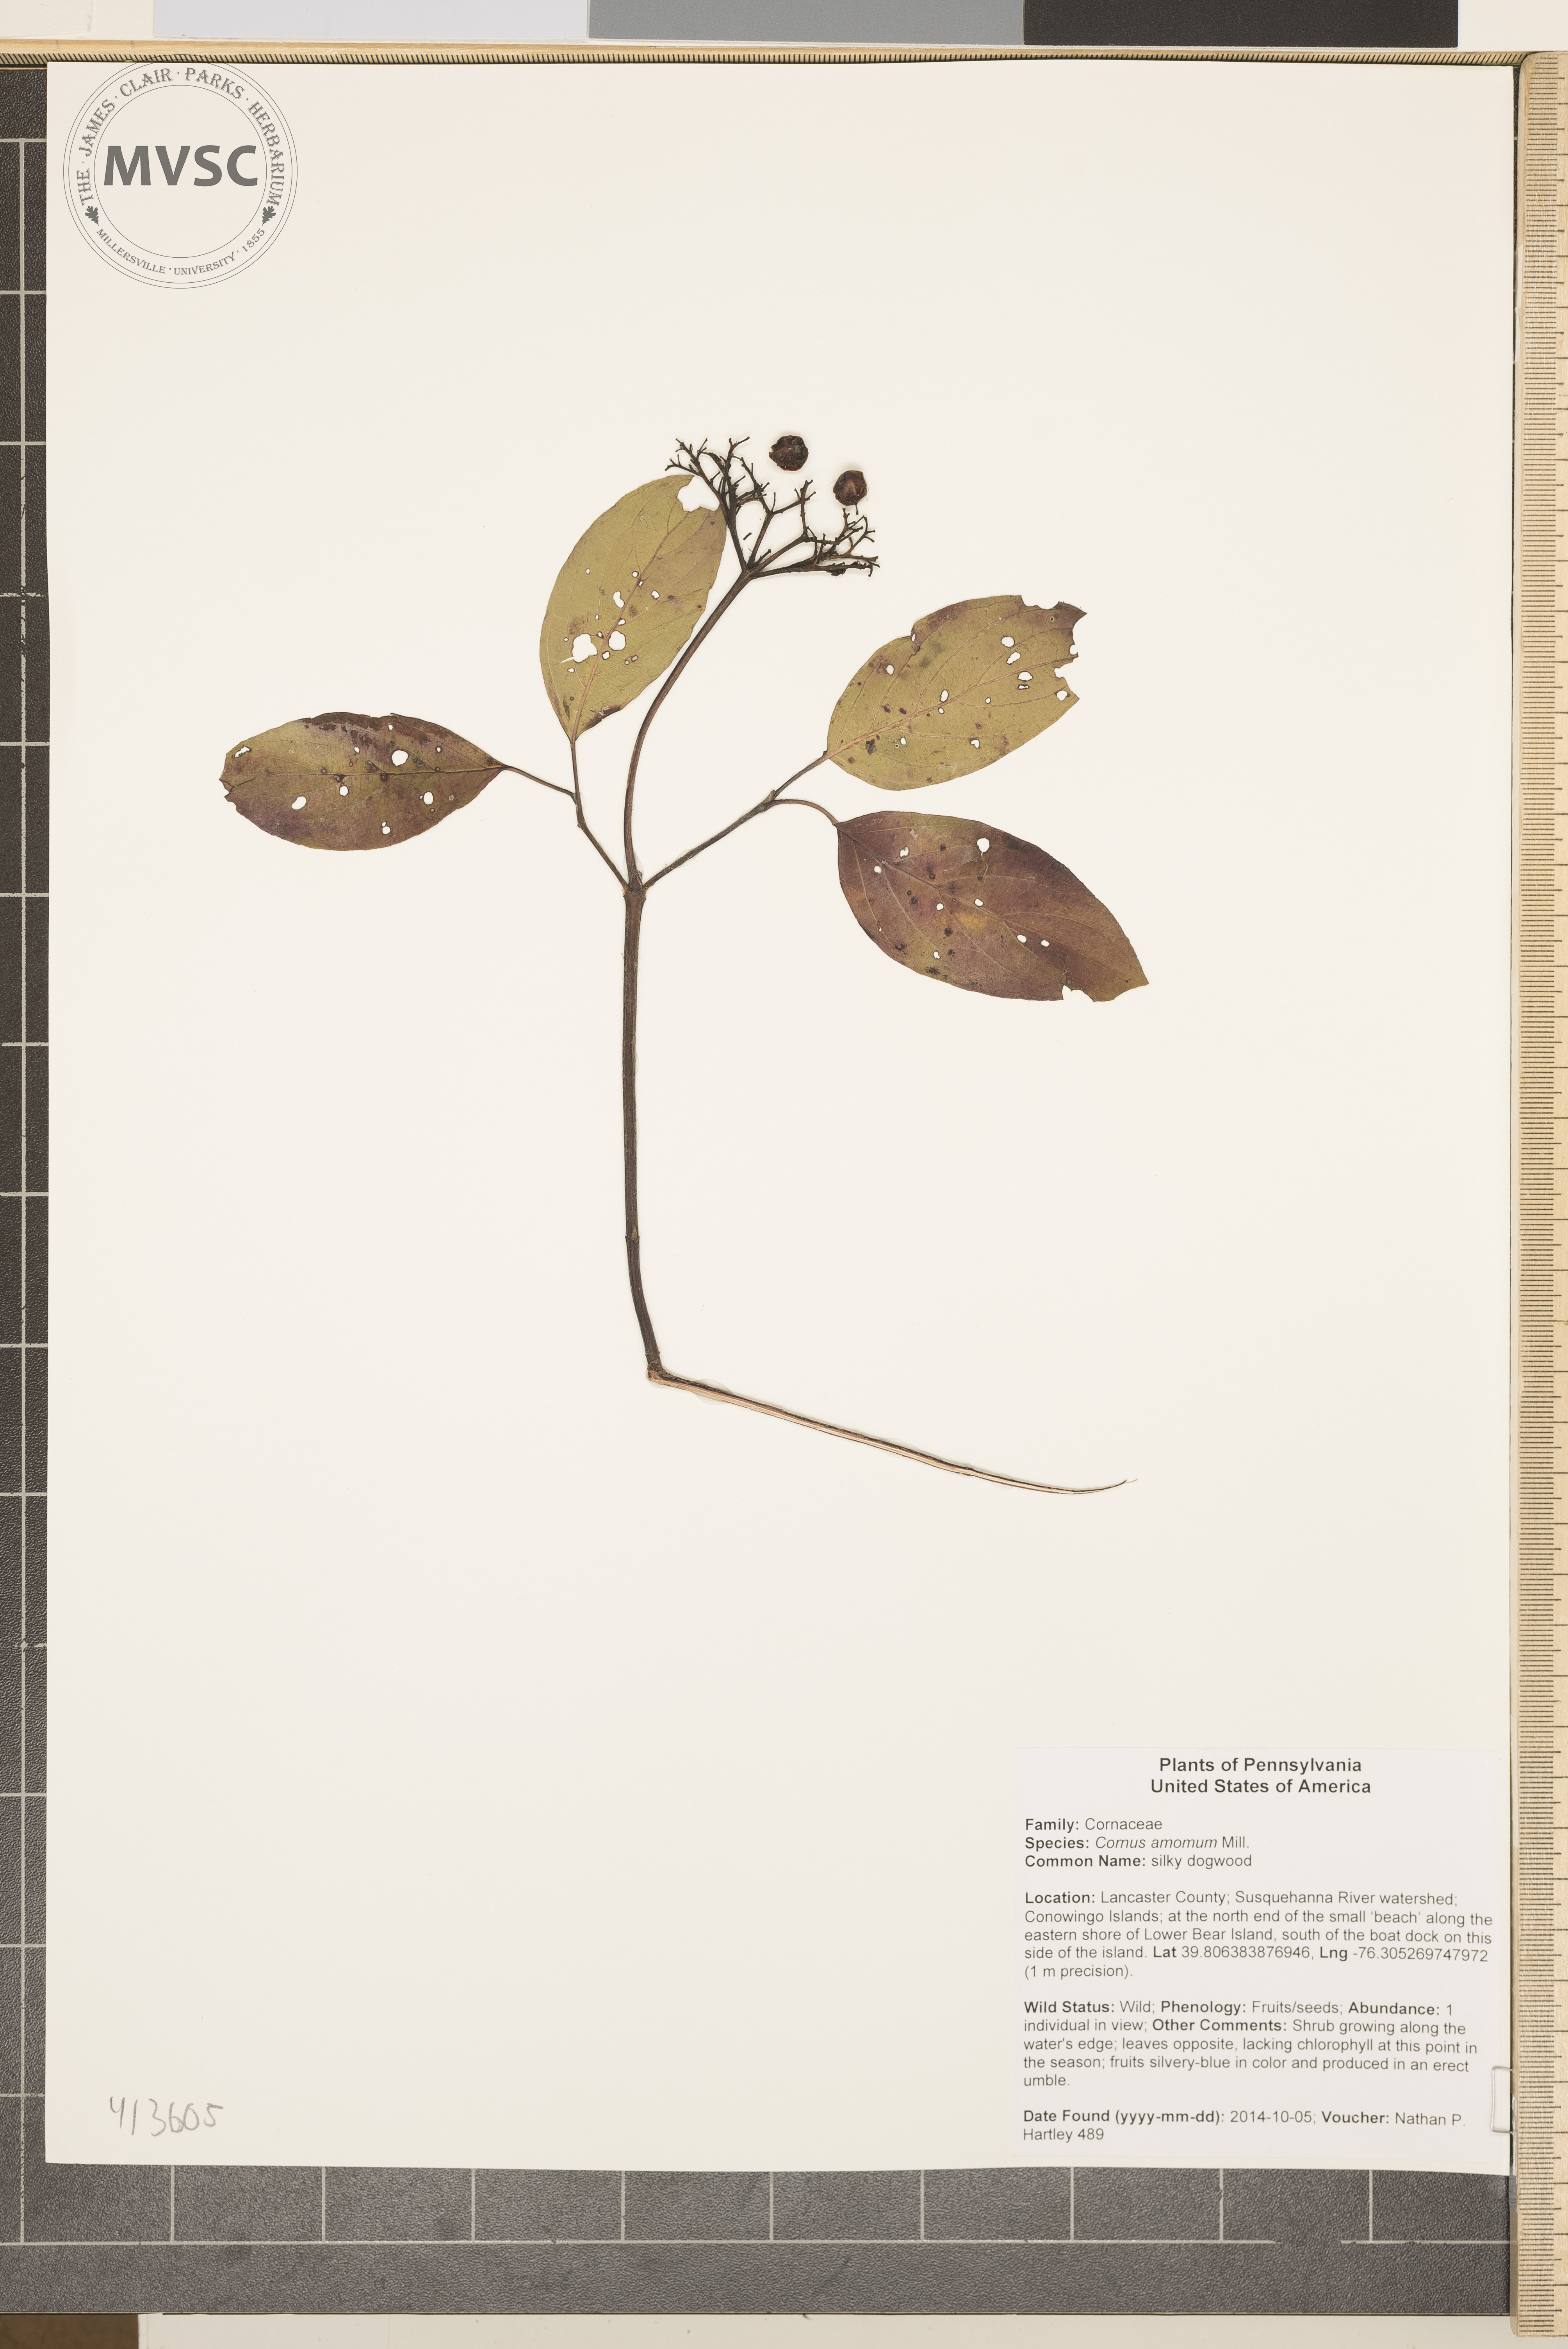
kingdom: Plantae
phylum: Tracheophyta
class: Magnoliopsida
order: Cornales
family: Cornaceae
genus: Cornus
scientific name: Cornus amomum
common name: silky dogwood
